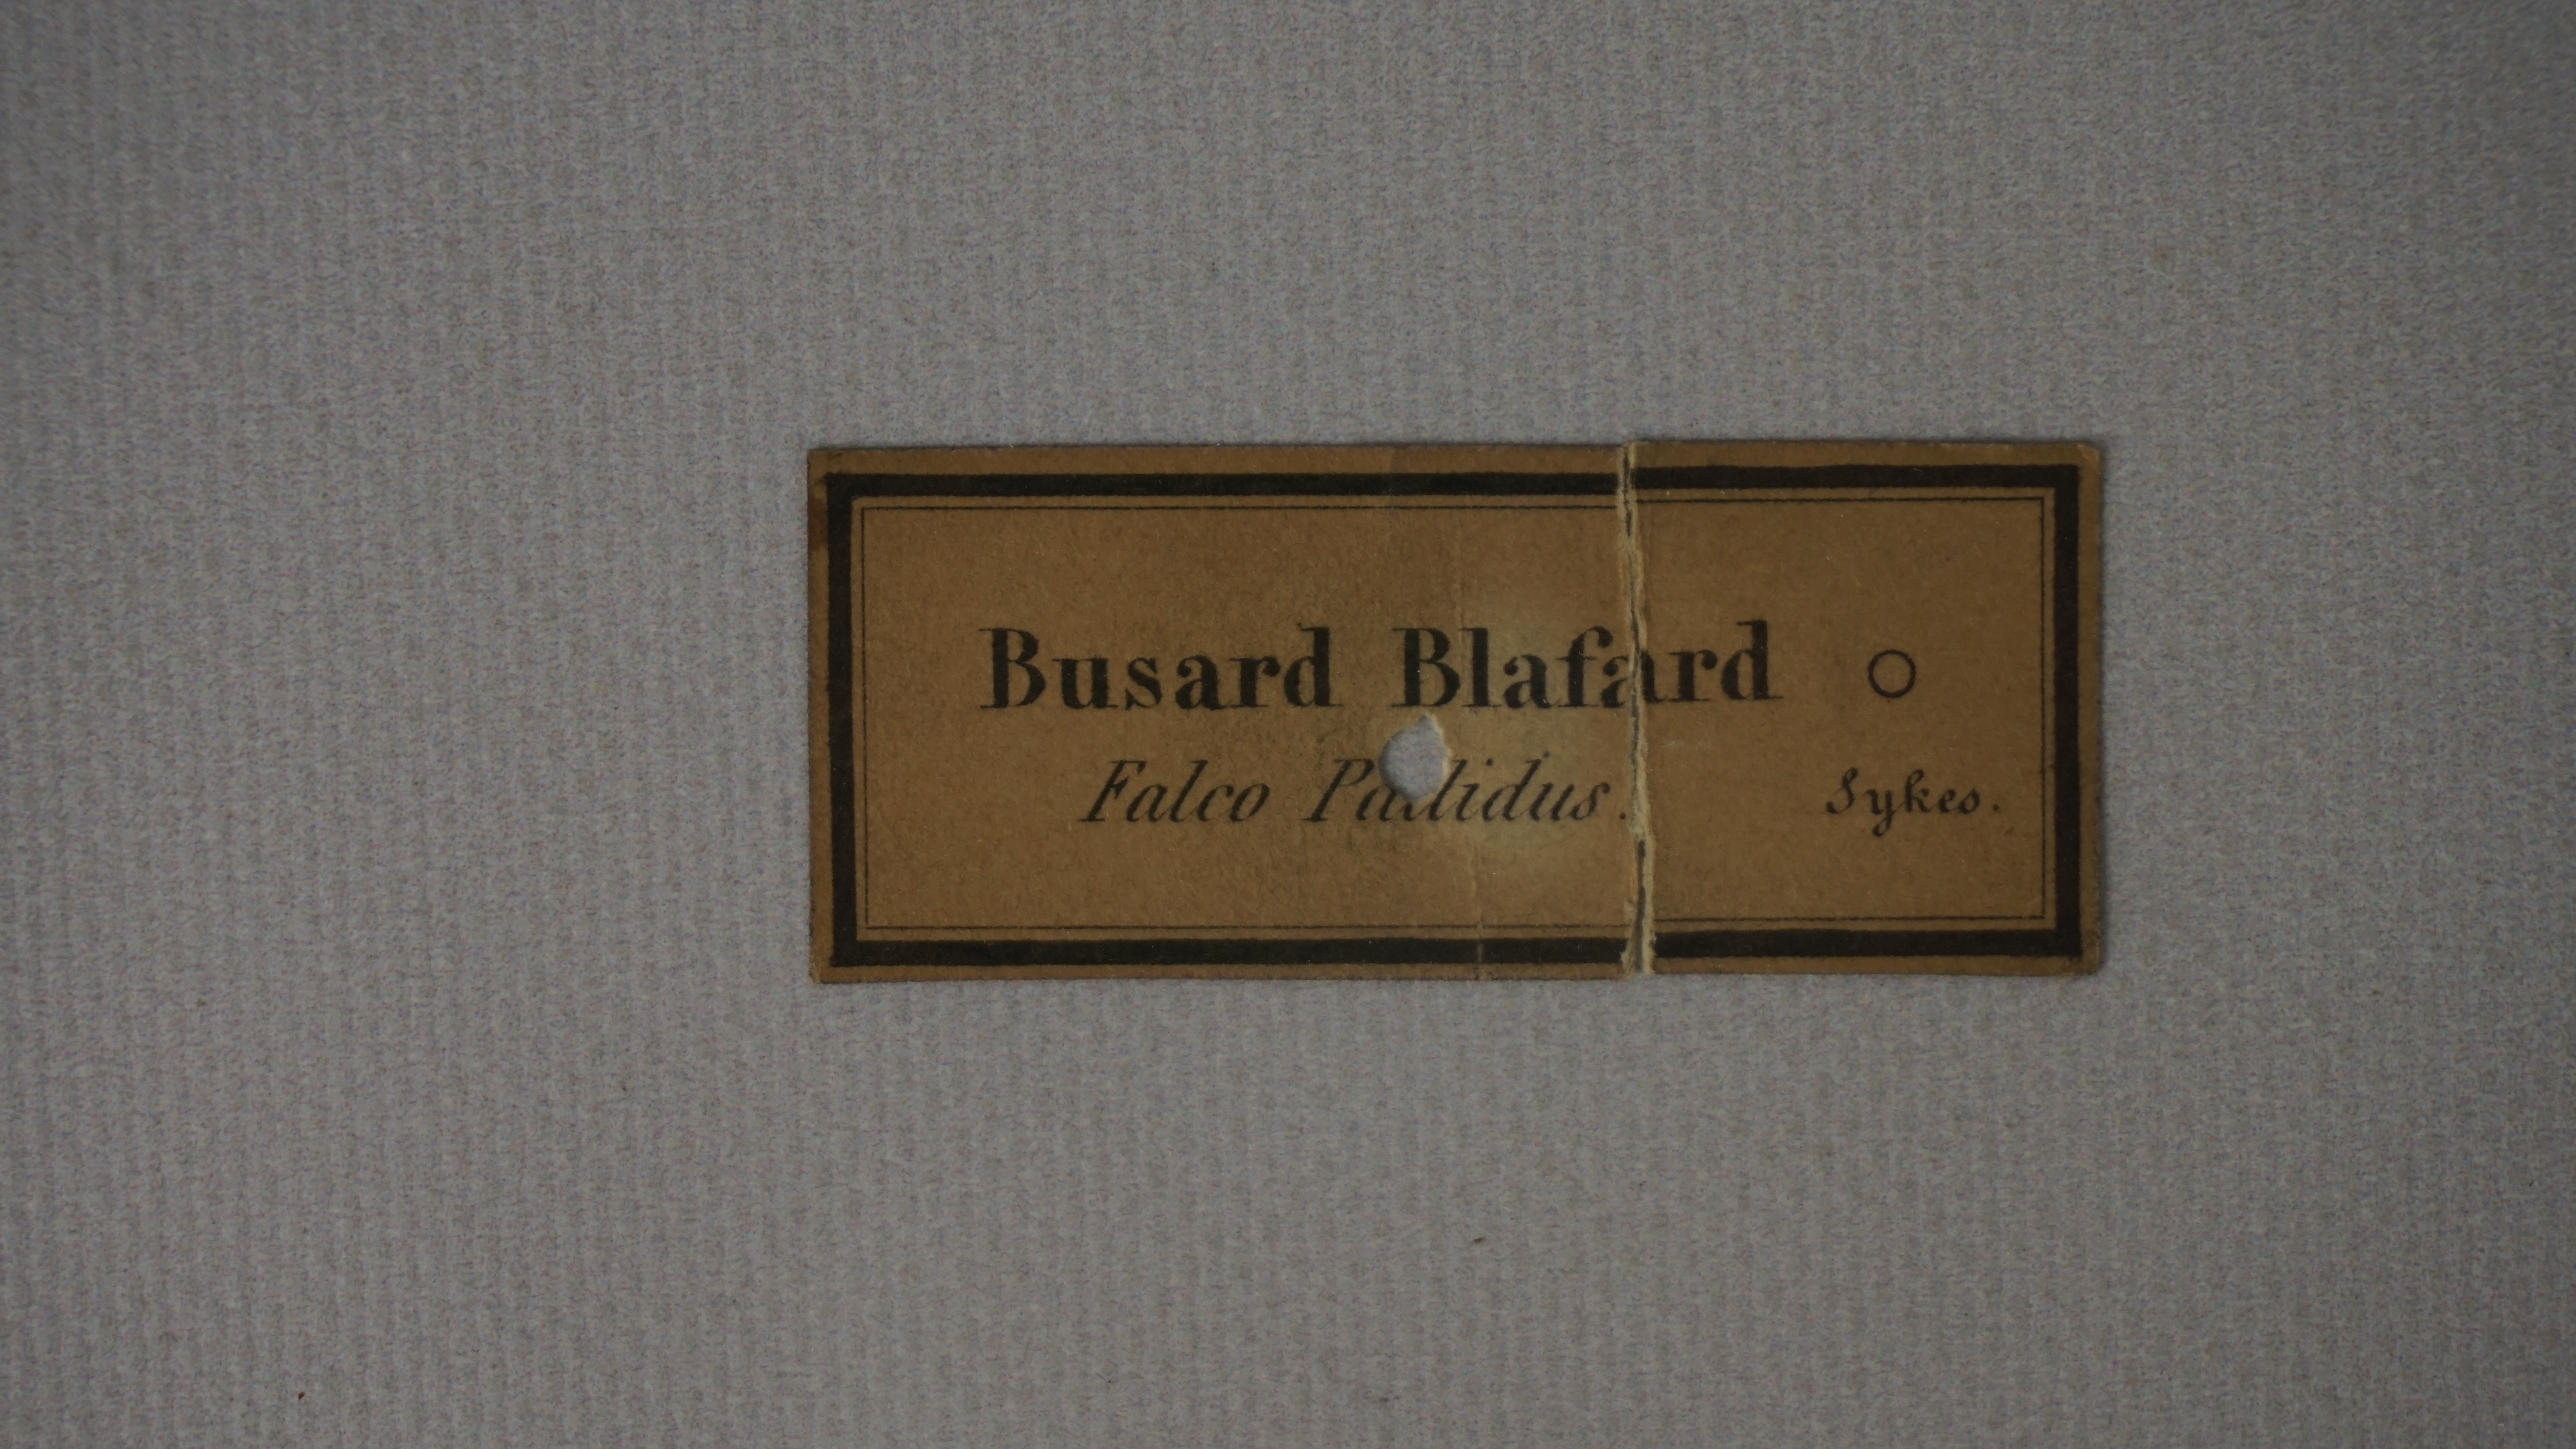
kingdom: Animalia
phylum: Chordata
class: Aves
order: Accipitriformes
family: Accipitridae
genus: Circus
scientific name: Circus cyaneus
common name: Hen harrier
